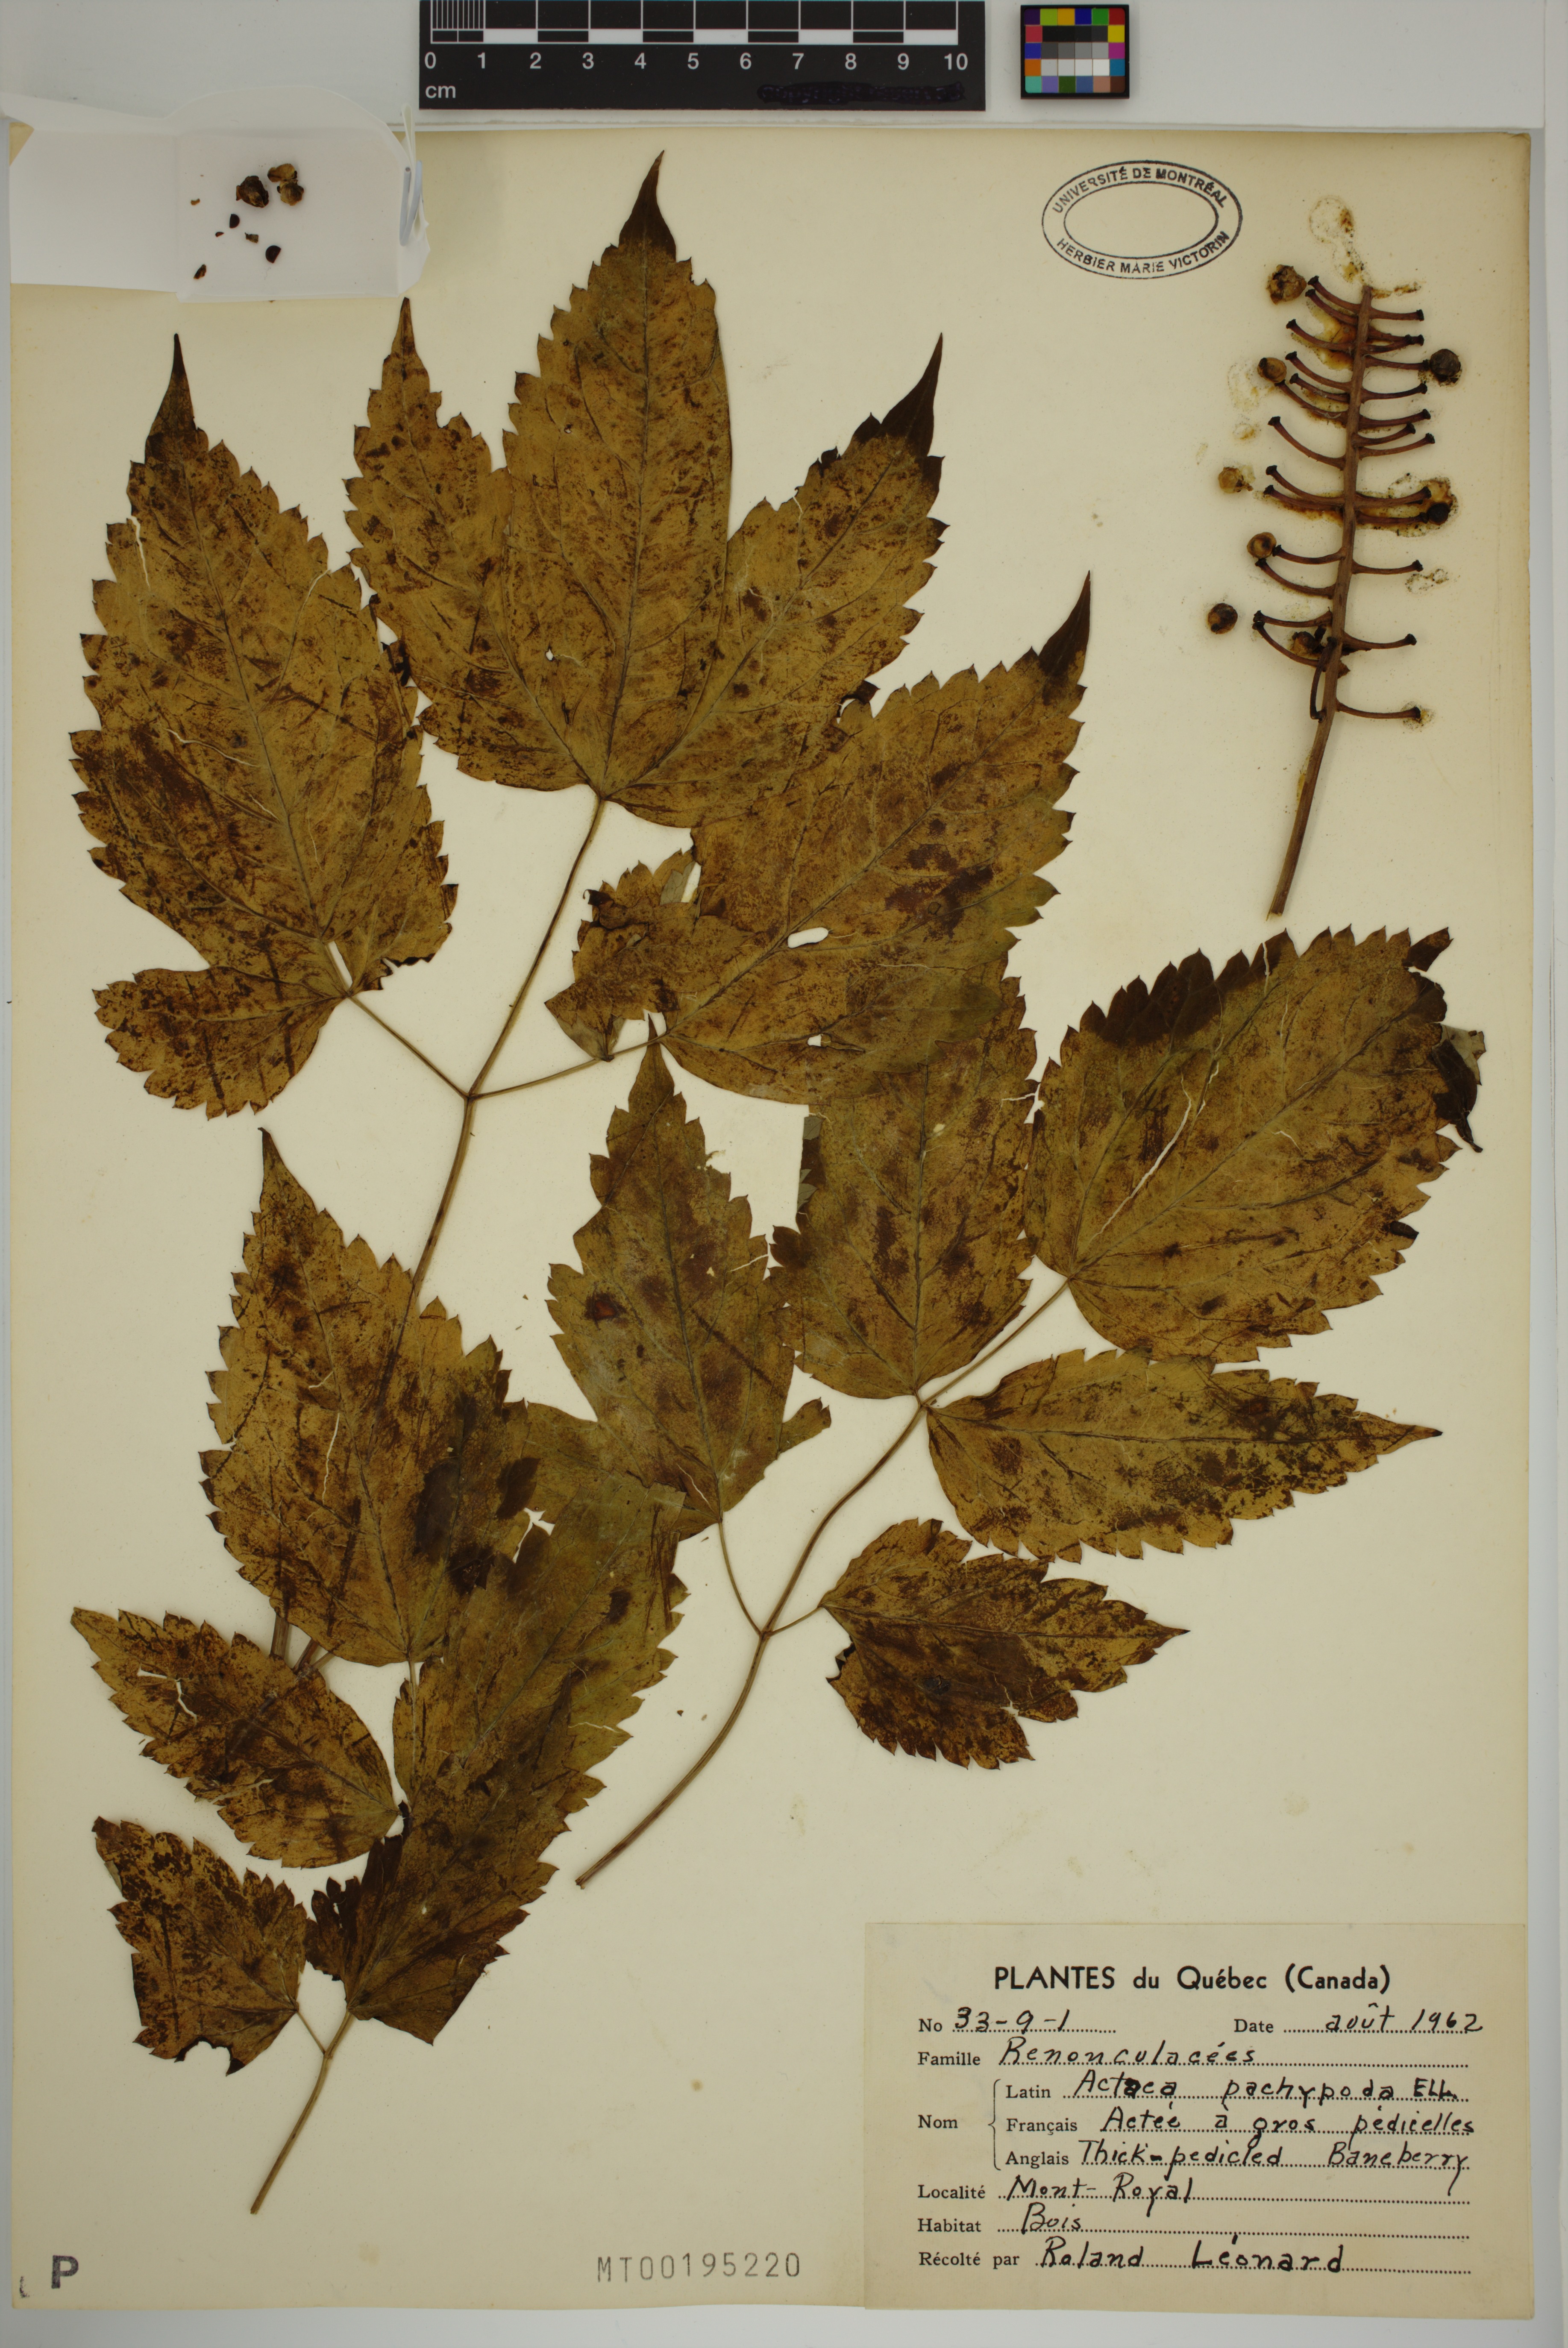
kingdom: Plantae
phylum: Tracheophyta
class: Magnoliopsida
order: Ranunculales
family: Ranunculaceae
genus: Actaea
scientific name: Actaea pachypoda
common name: Doll's-eyes
